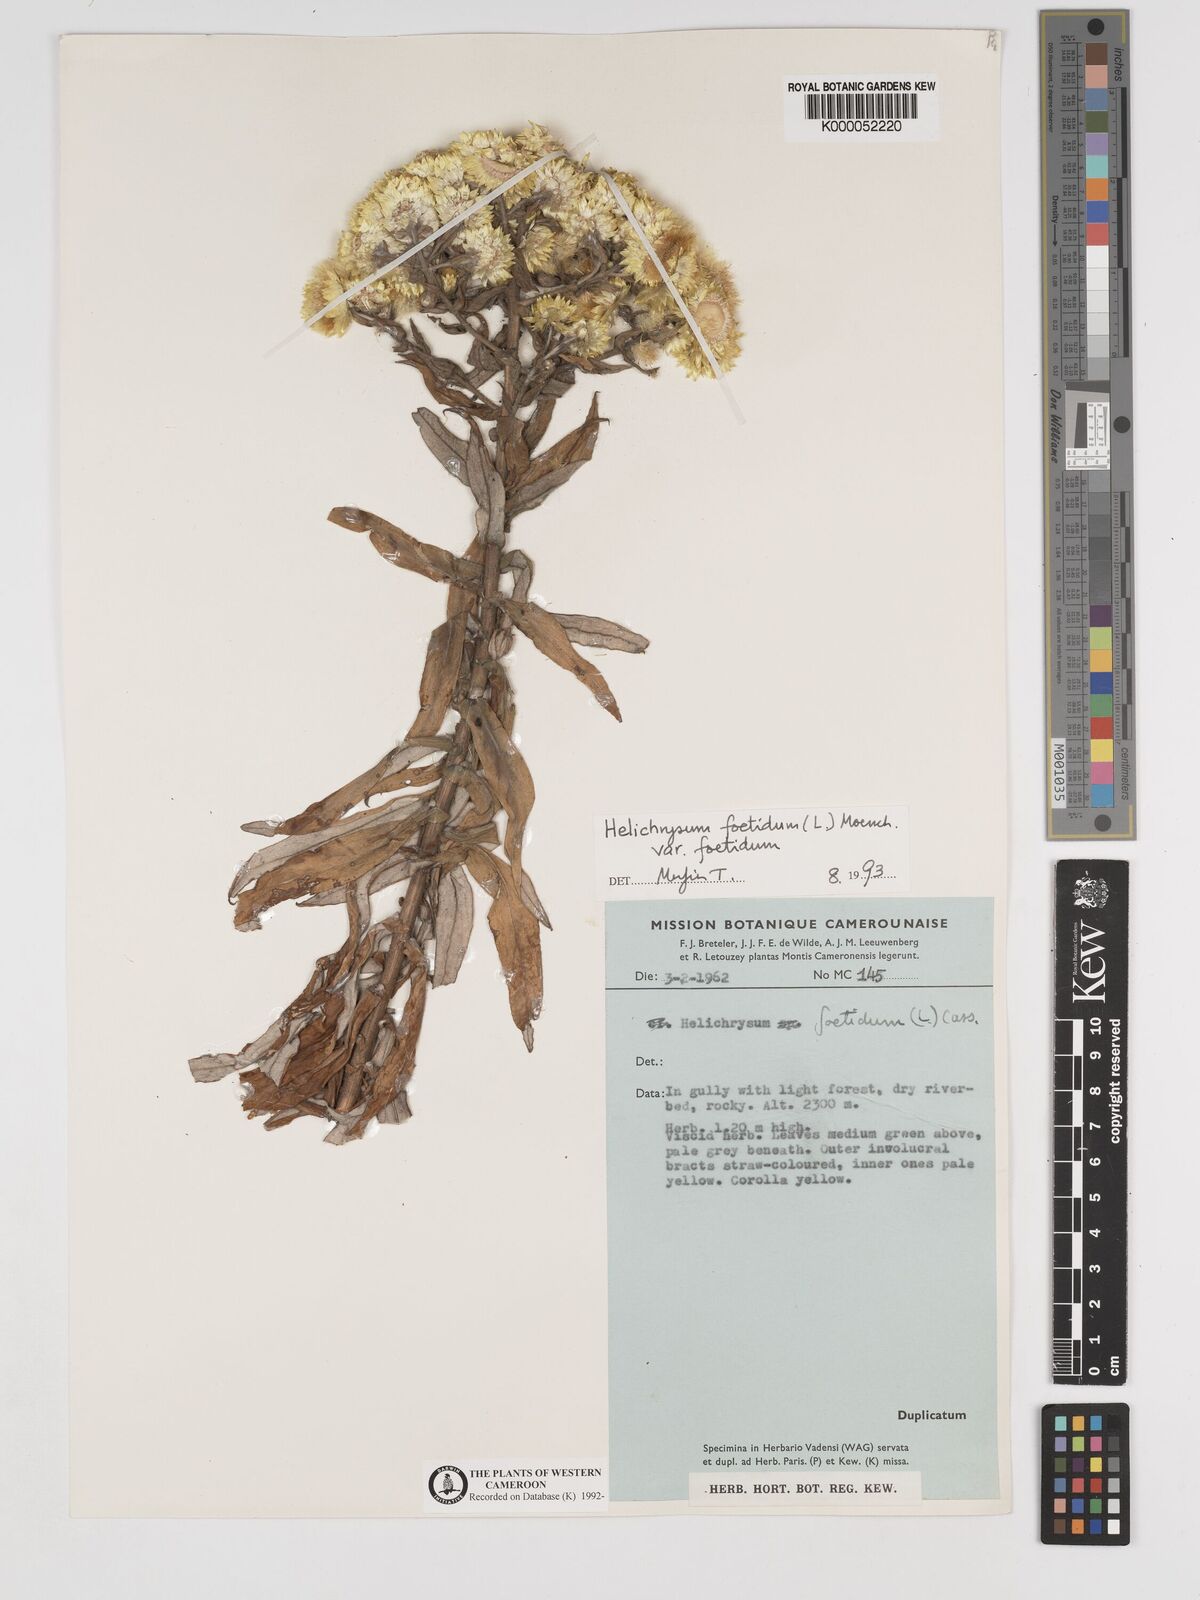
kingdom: Plantae
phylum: Tracheophyta
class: Magnoliopsida
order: Asterales
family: Asteraceae
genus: Helichrysum
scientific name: Helichrysum foetidum
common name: Stinking everlasting
